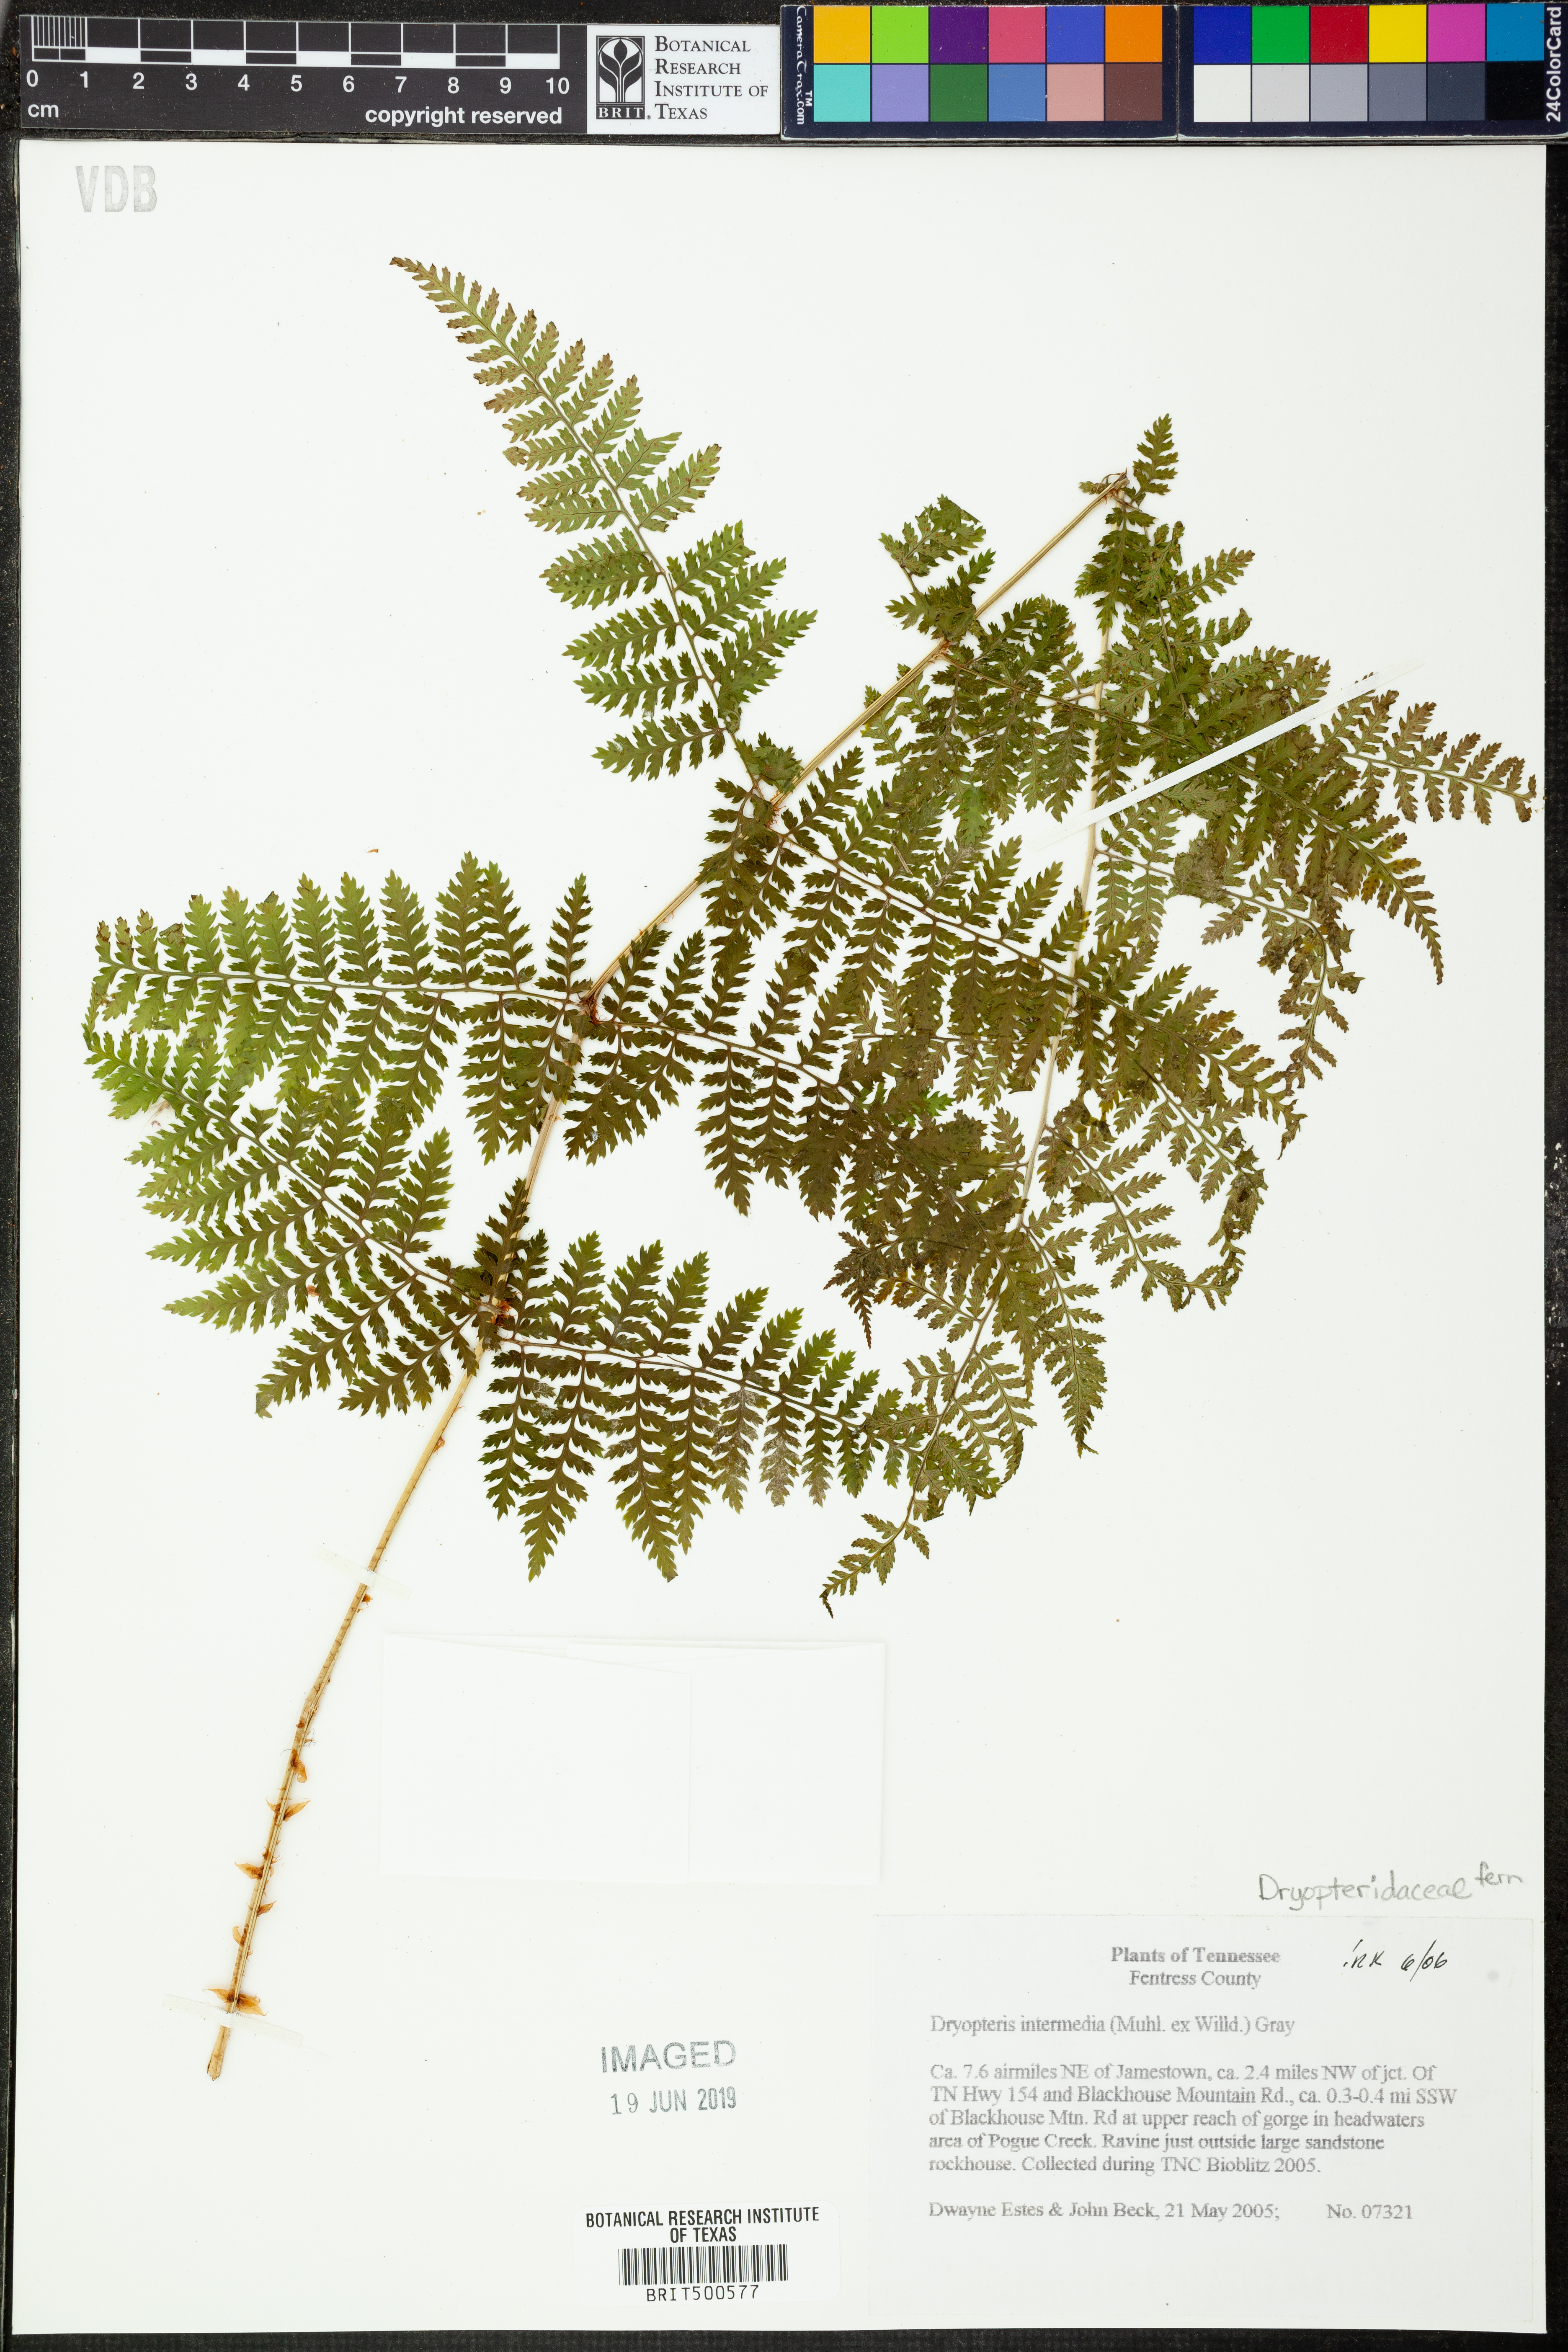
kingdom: Plantae
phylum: Tracheophyta
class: Polypodiopsida
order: Polypodiales
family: Dryopteridaceae
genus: Dryopteris
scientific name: Dryopteris intermedia
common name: Evergreen wood fern
